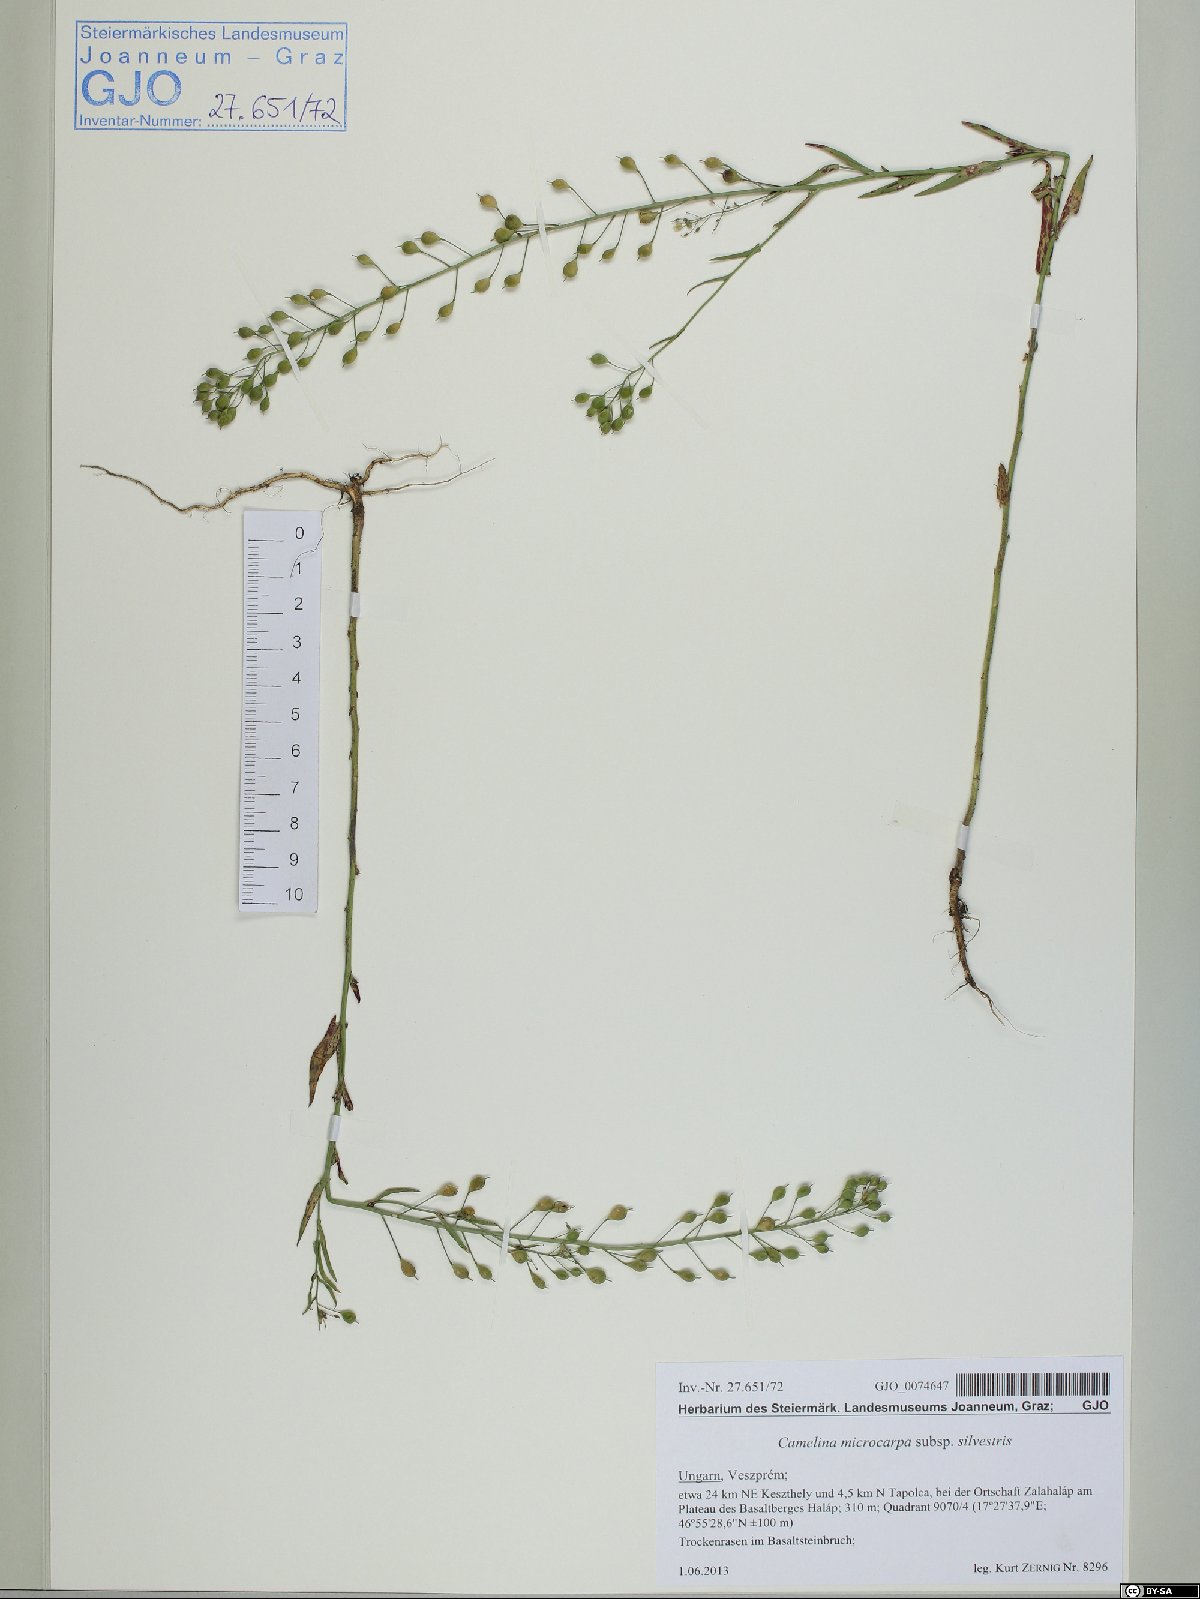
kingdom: Plantae
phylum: Tracheophyta
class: Magnoliopsida
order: Brassicales
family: Brassicaceae
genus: Camelina
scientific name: Camelina microcarpa
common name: Lesser gold-of-pleasure
